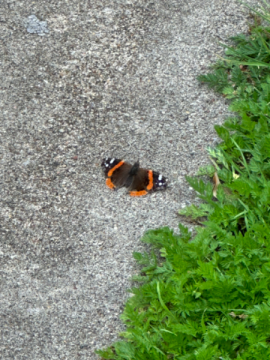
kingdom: Animalia
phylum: Arthropoda
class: Insecta
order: Lepidoptera
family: Nymphalidae
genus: Vanessa
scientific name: Vanessa atalanta
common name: Red Admiral
